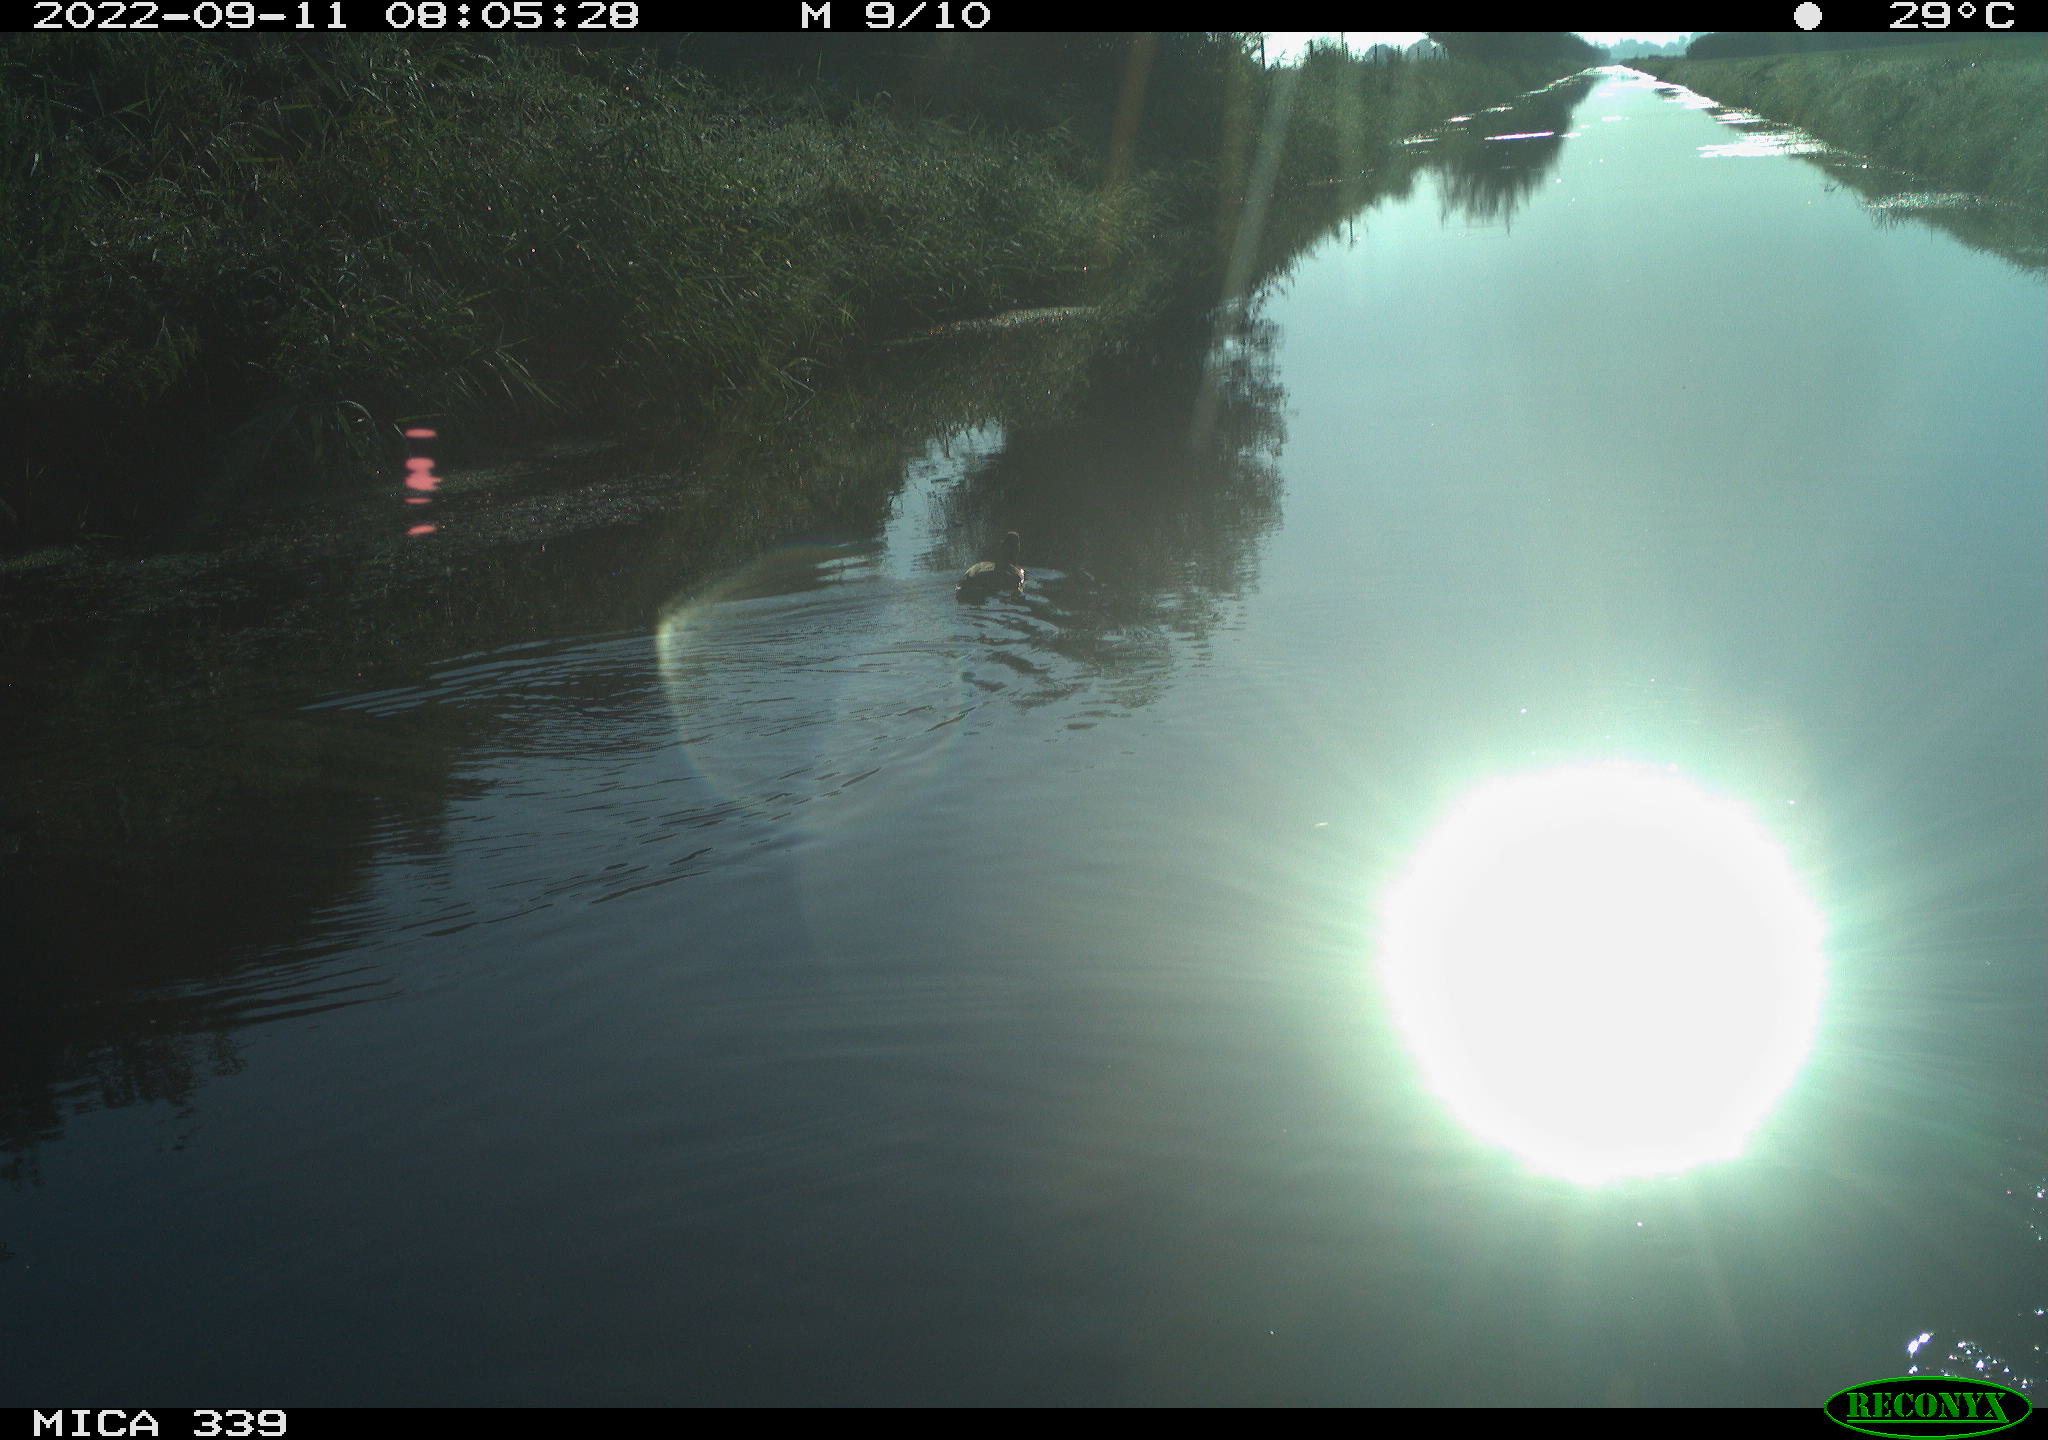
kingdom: Animalia
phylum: Chordata
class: Aves
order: Gruiformes
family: Rallidae
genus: Gallinula
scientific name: Gallinula chloropus
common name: Common moorhen
